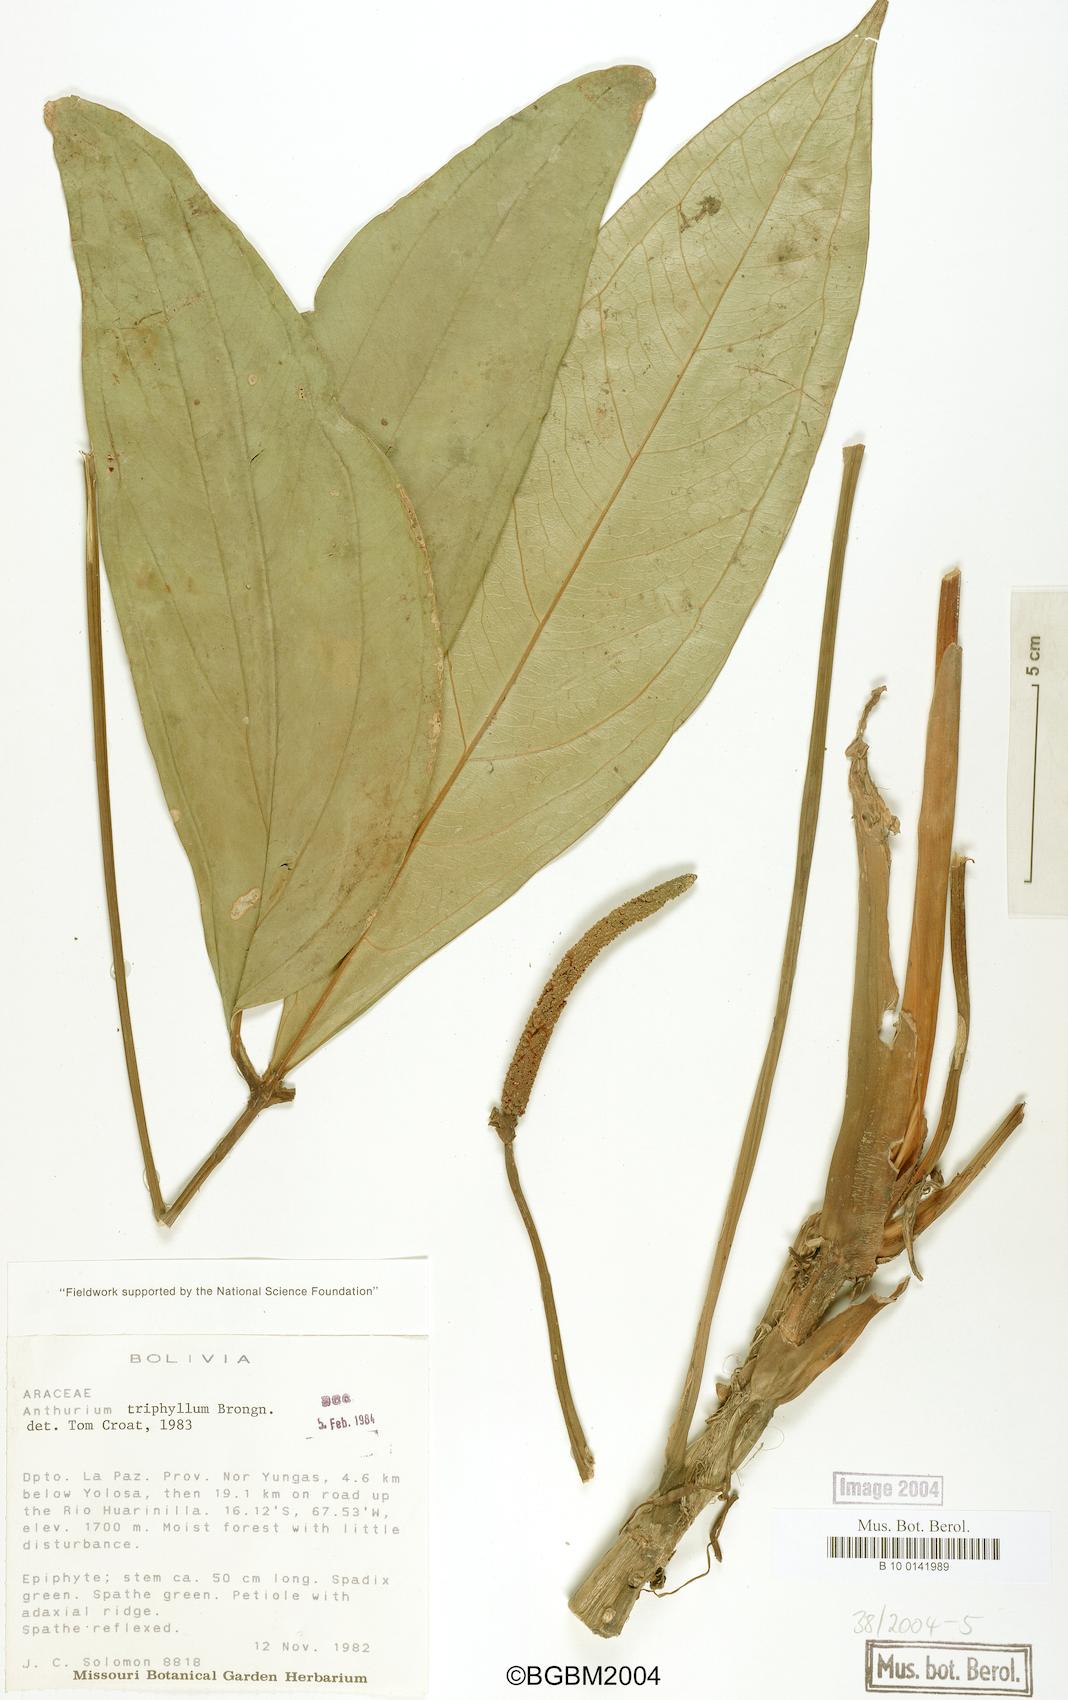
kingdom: Plantae
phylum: Tracheophyta
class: Liliopsida
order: Alismatales
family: Araceae
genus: Anthurium
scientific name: Anthurium triphyllum
